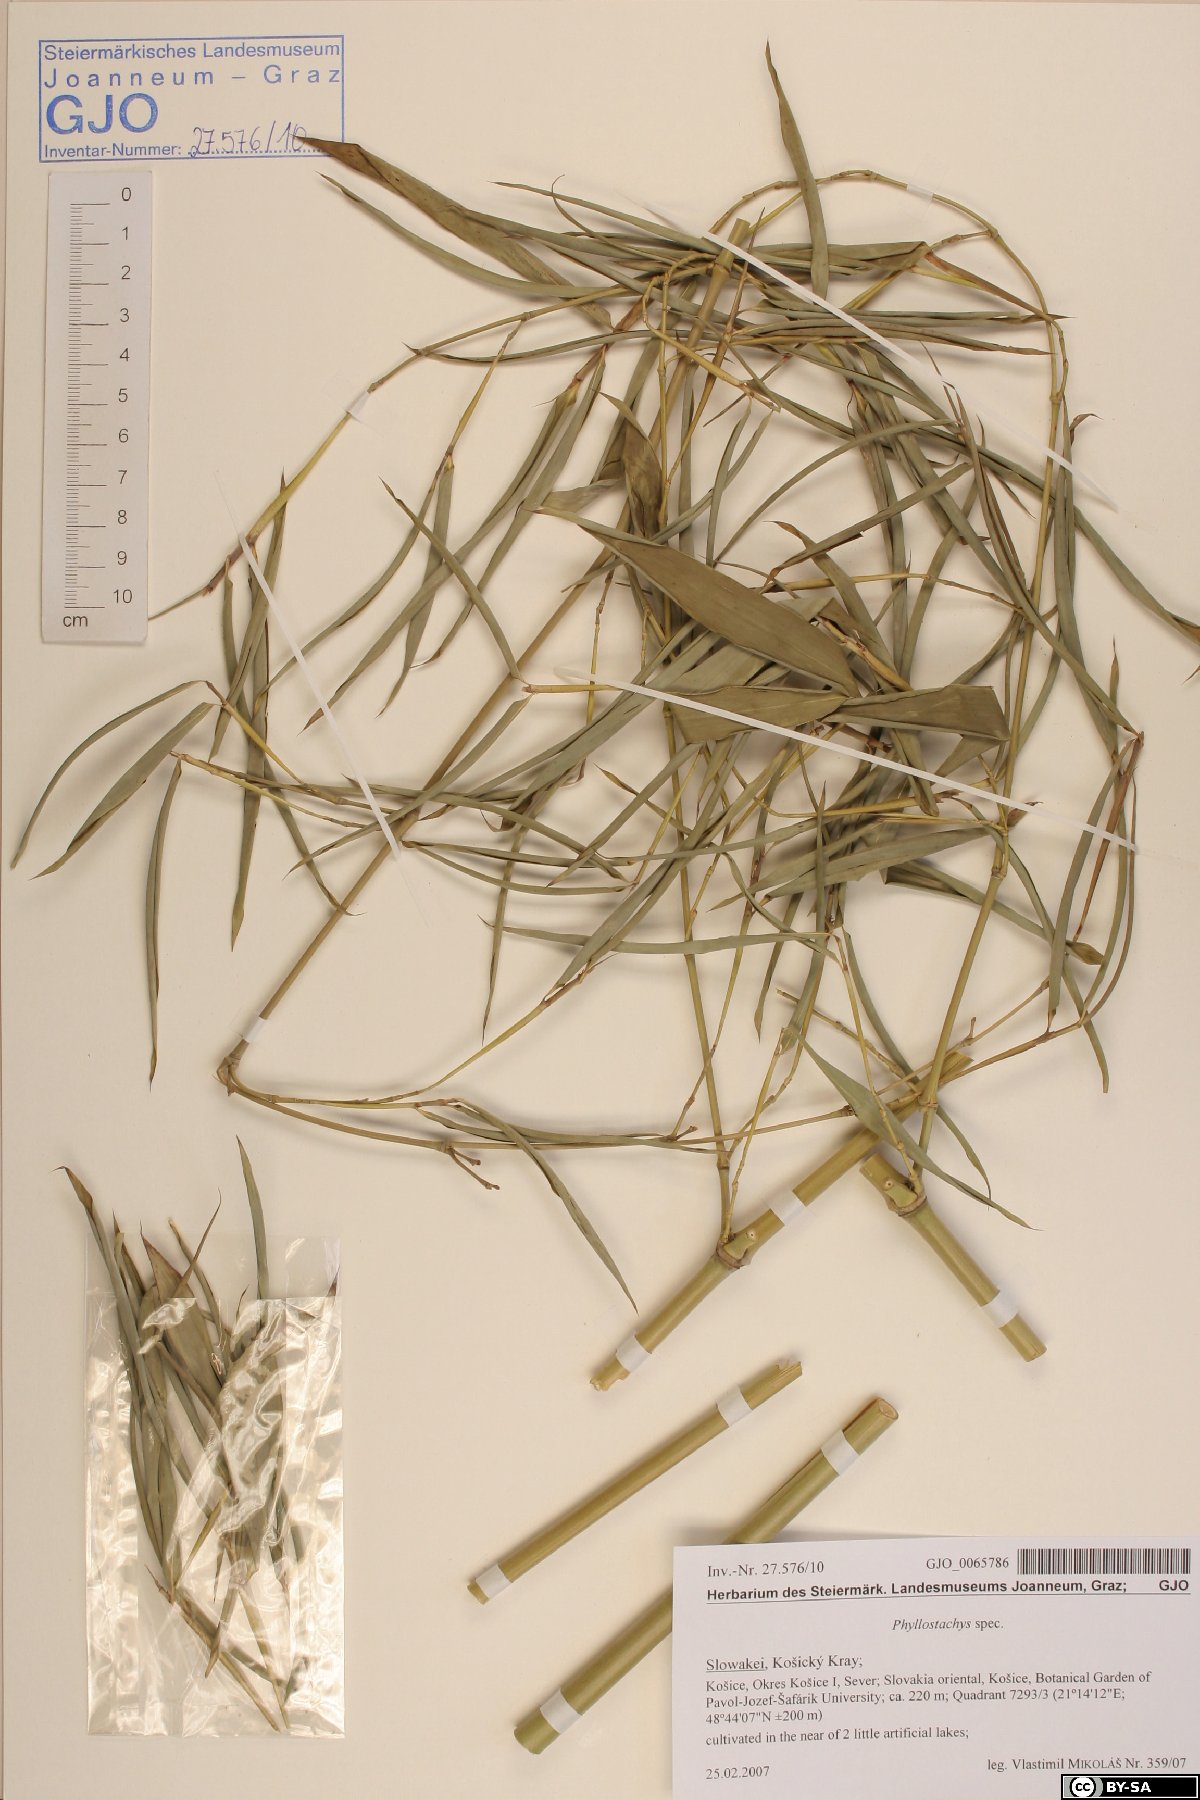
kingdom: Plantae
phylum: Tracheophyta
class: Liliopsida
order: Poales
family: Poaceae
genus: Phyllostachys
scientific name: Phyllostachys
